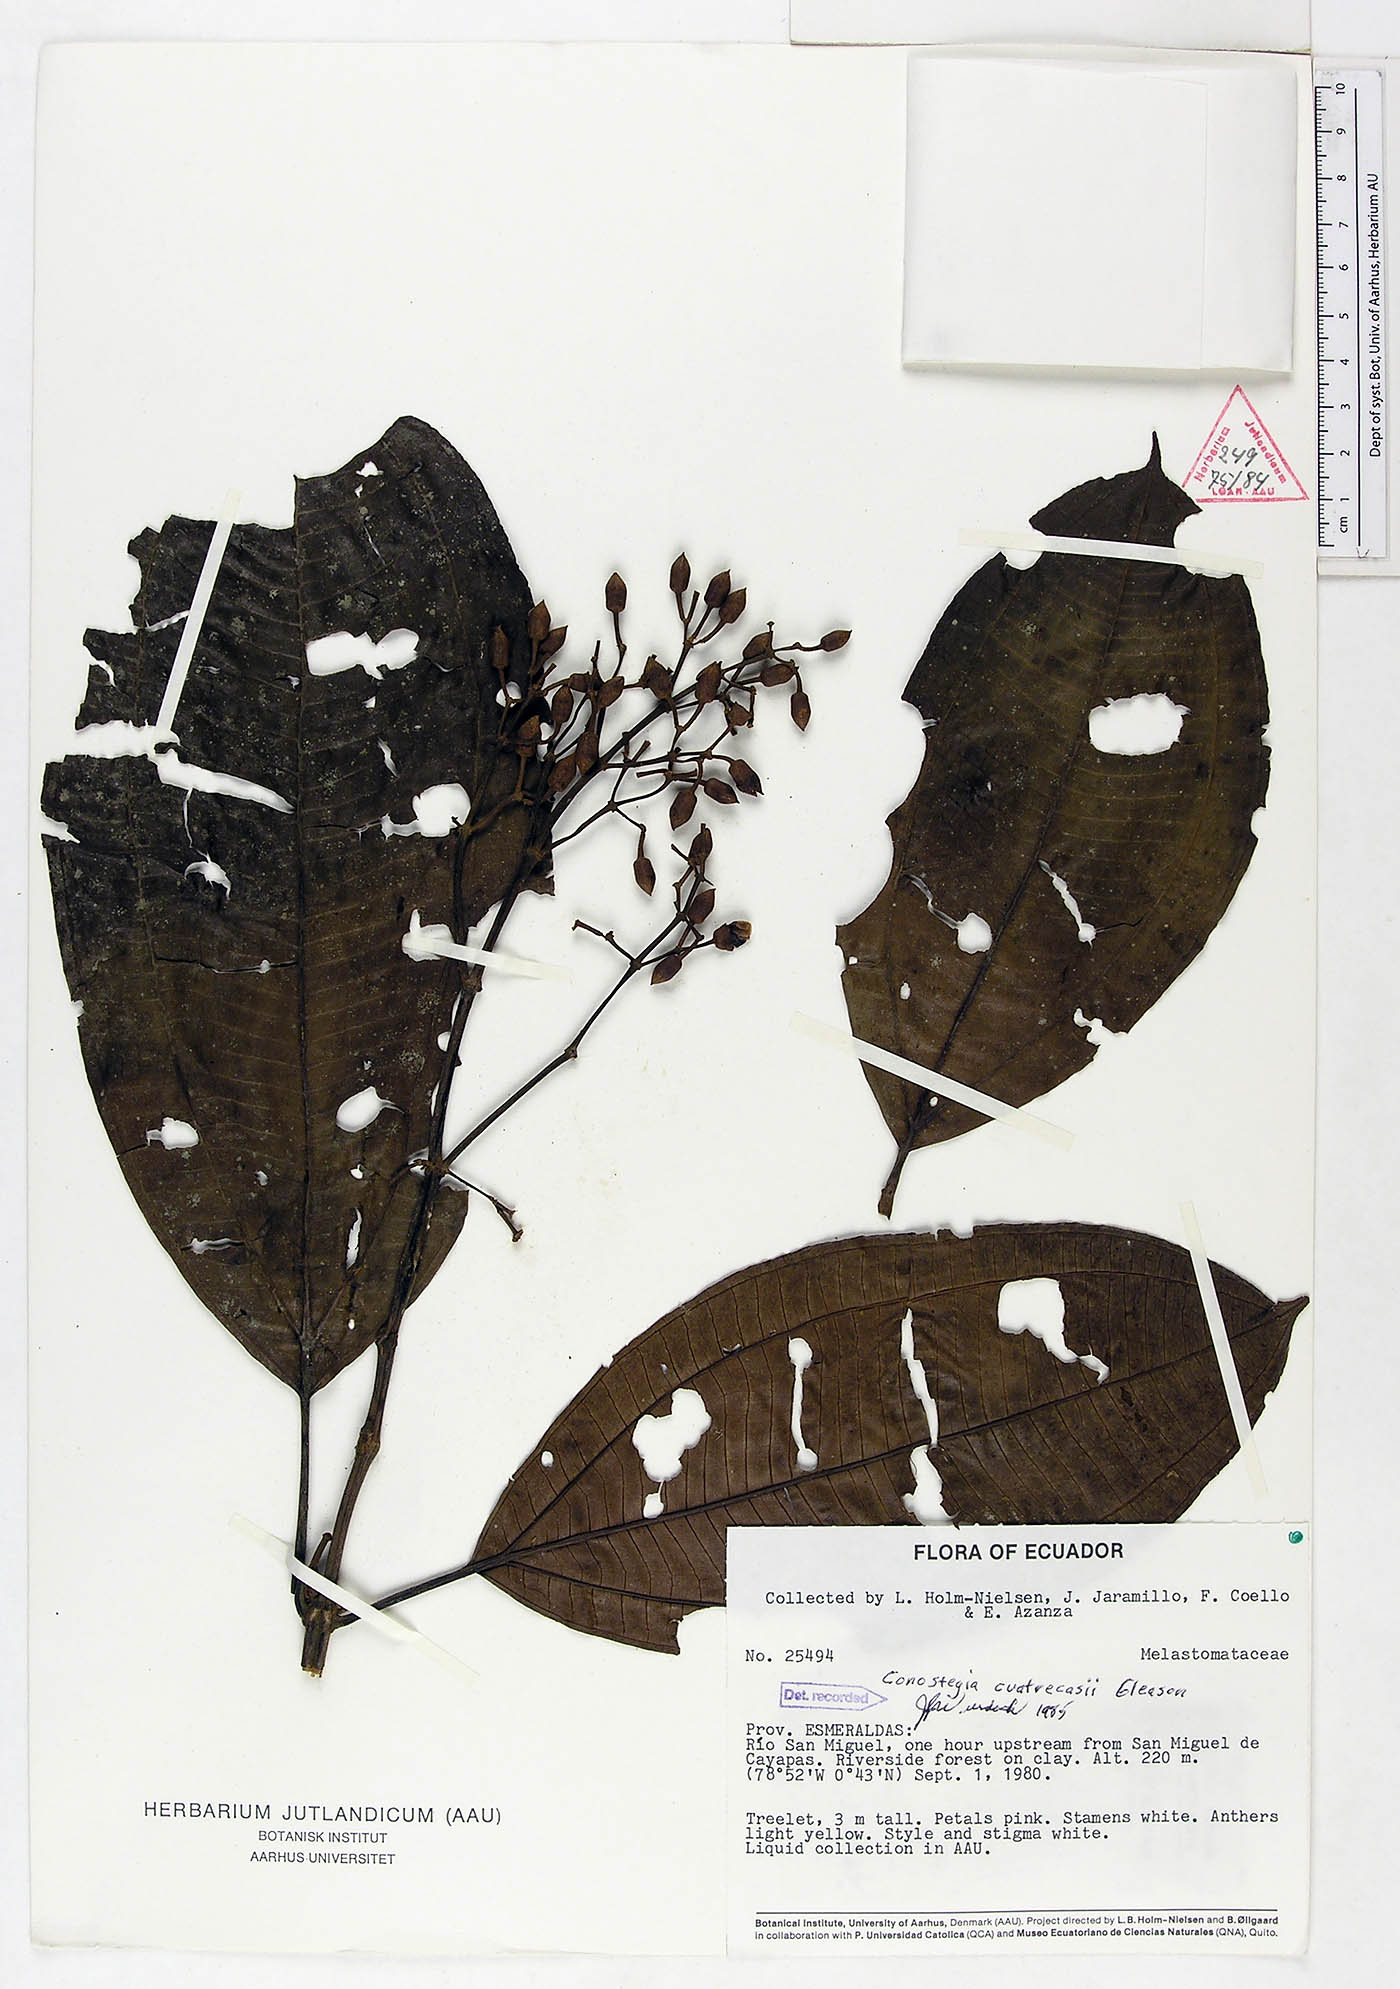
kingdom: Plantae
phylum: Tracheophyta
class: Magnoliopsida
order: Myrtales
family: Melastomataceae
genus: Miconia
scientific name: Miconia conocuatrecasii
